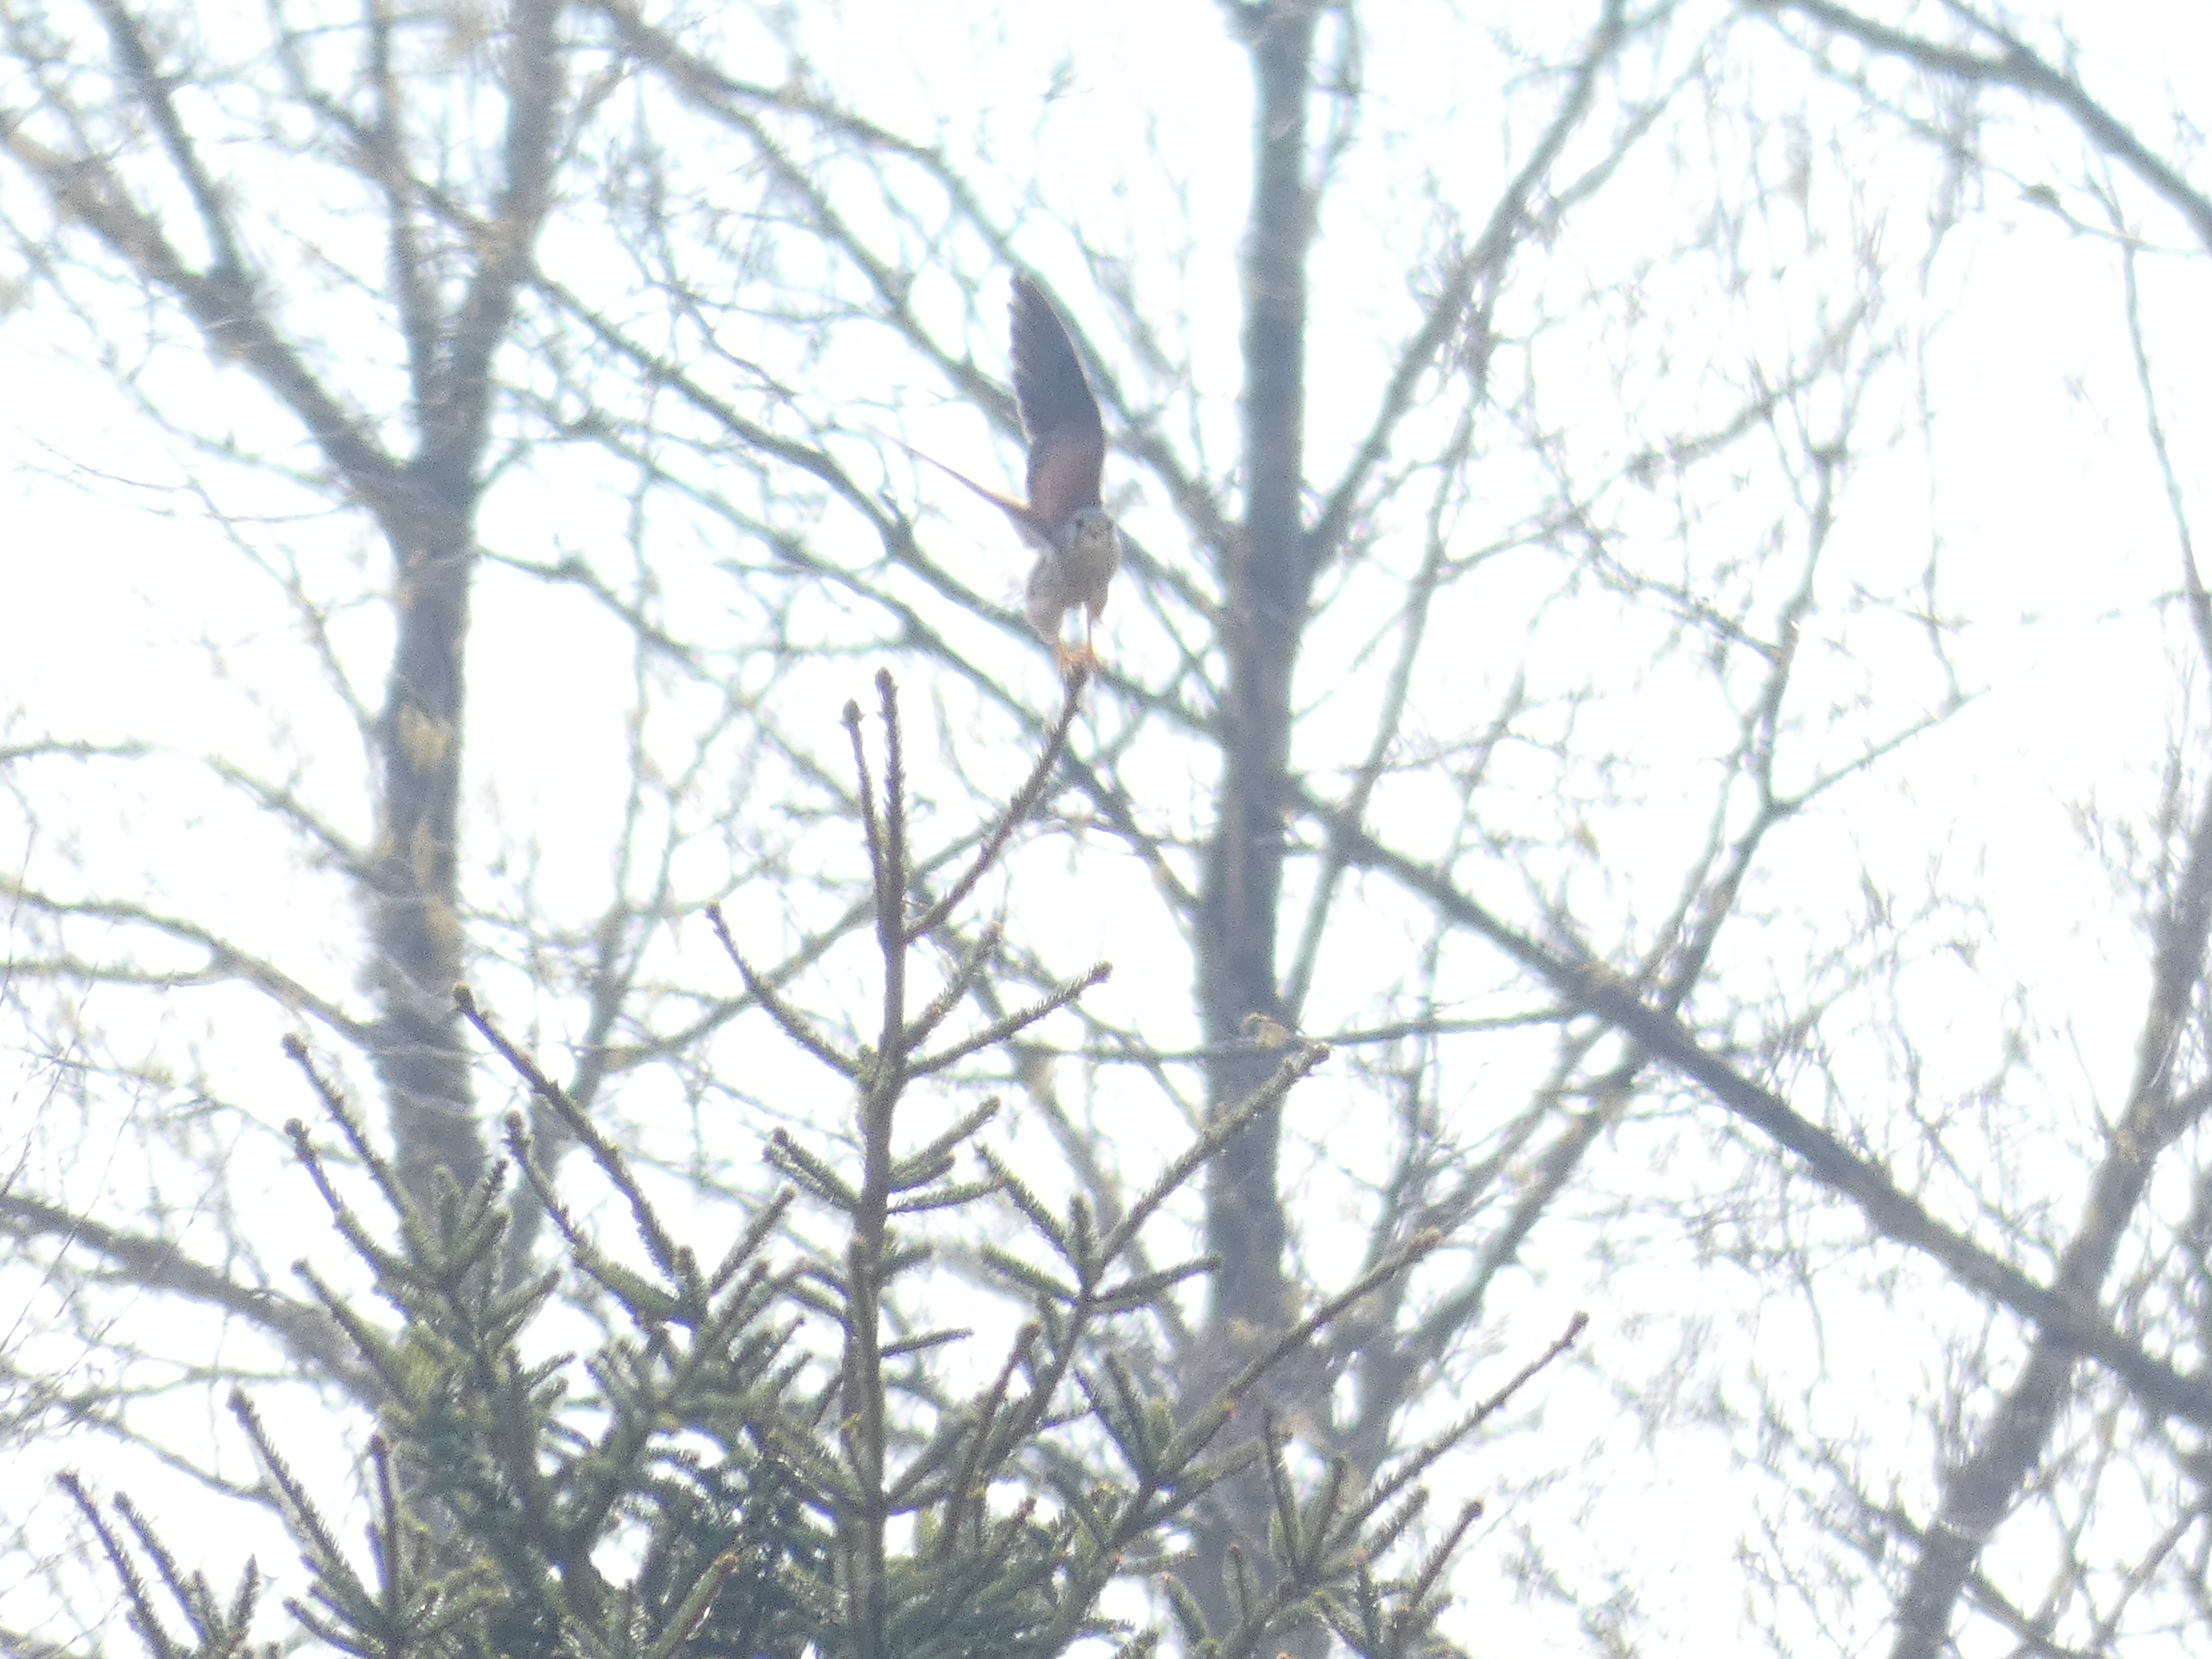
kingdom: Animalia
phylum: Chordata
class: Aves
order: Falconiformes
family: Falconidae
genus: Falco
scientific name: Falco tinnunculus
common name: Tårnfalk
